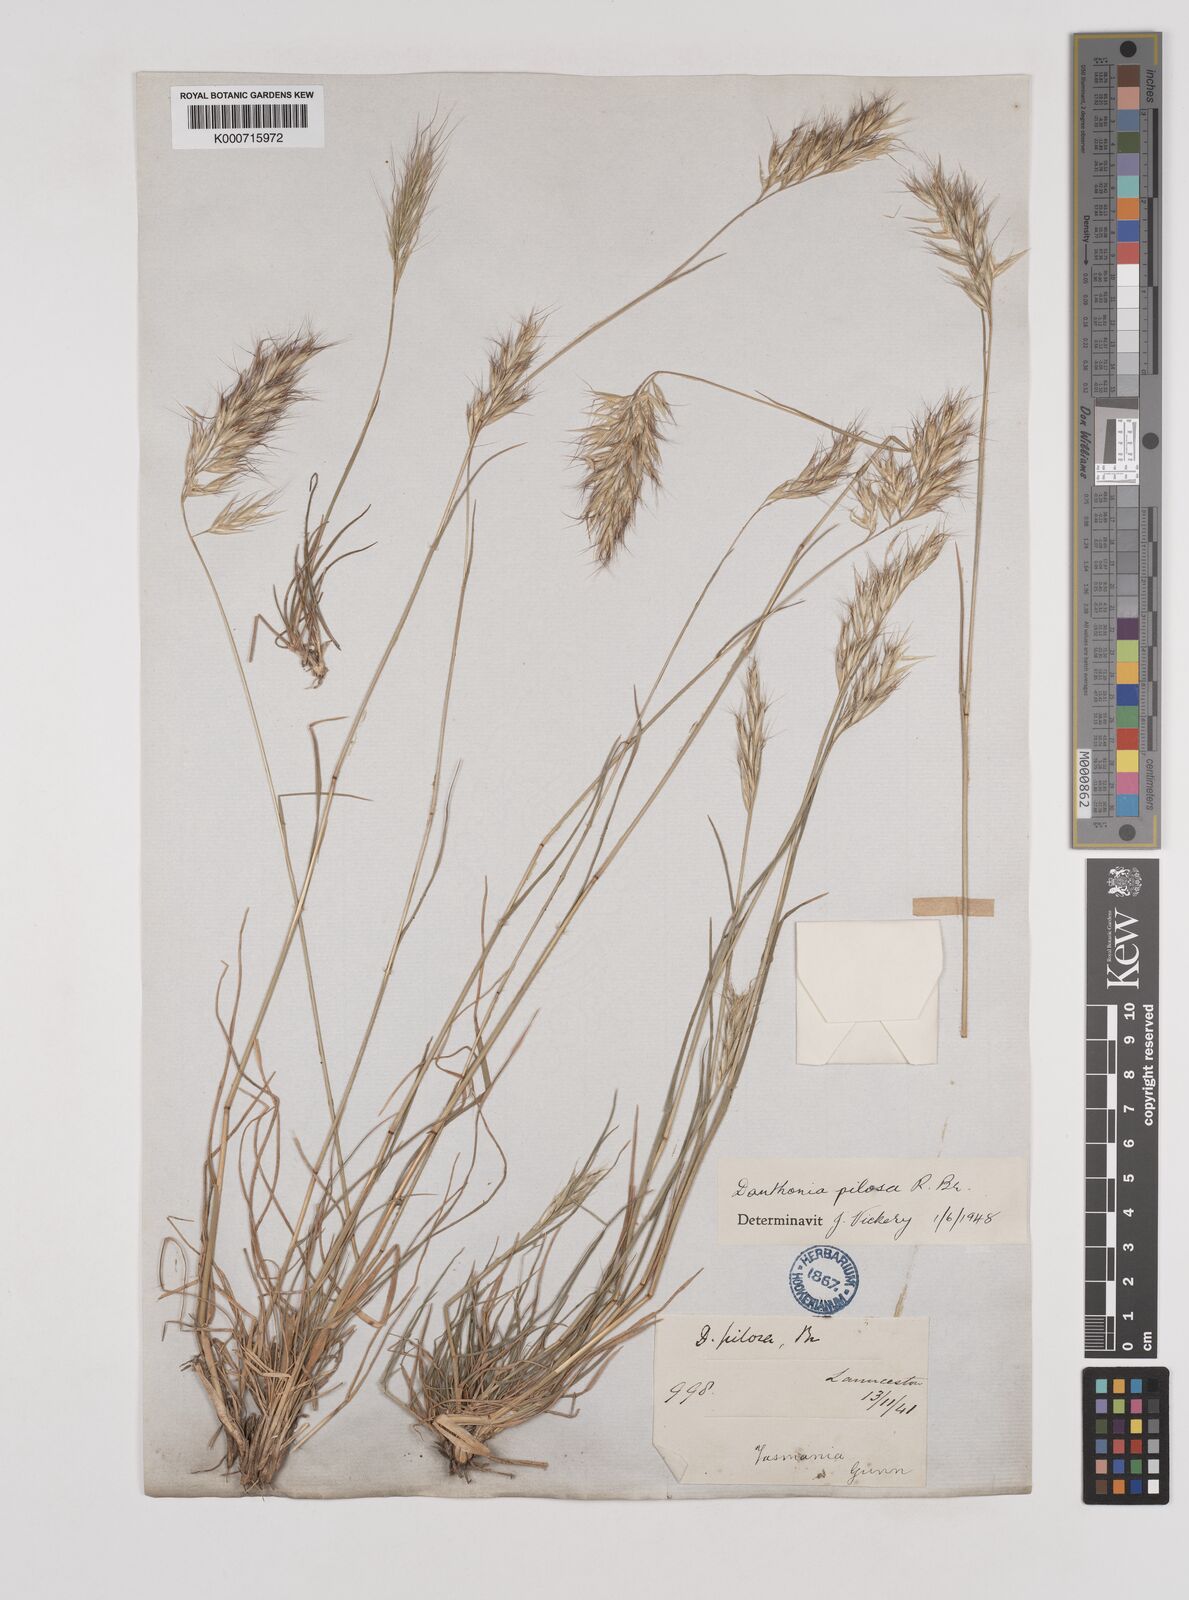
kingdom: Plantae
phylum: Tracheophyta
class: Liliopsida
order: Poales
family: Poaceae
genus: Rytidosperma
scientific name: Rytidosperma pilosum
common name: Hairy wallaby grass
